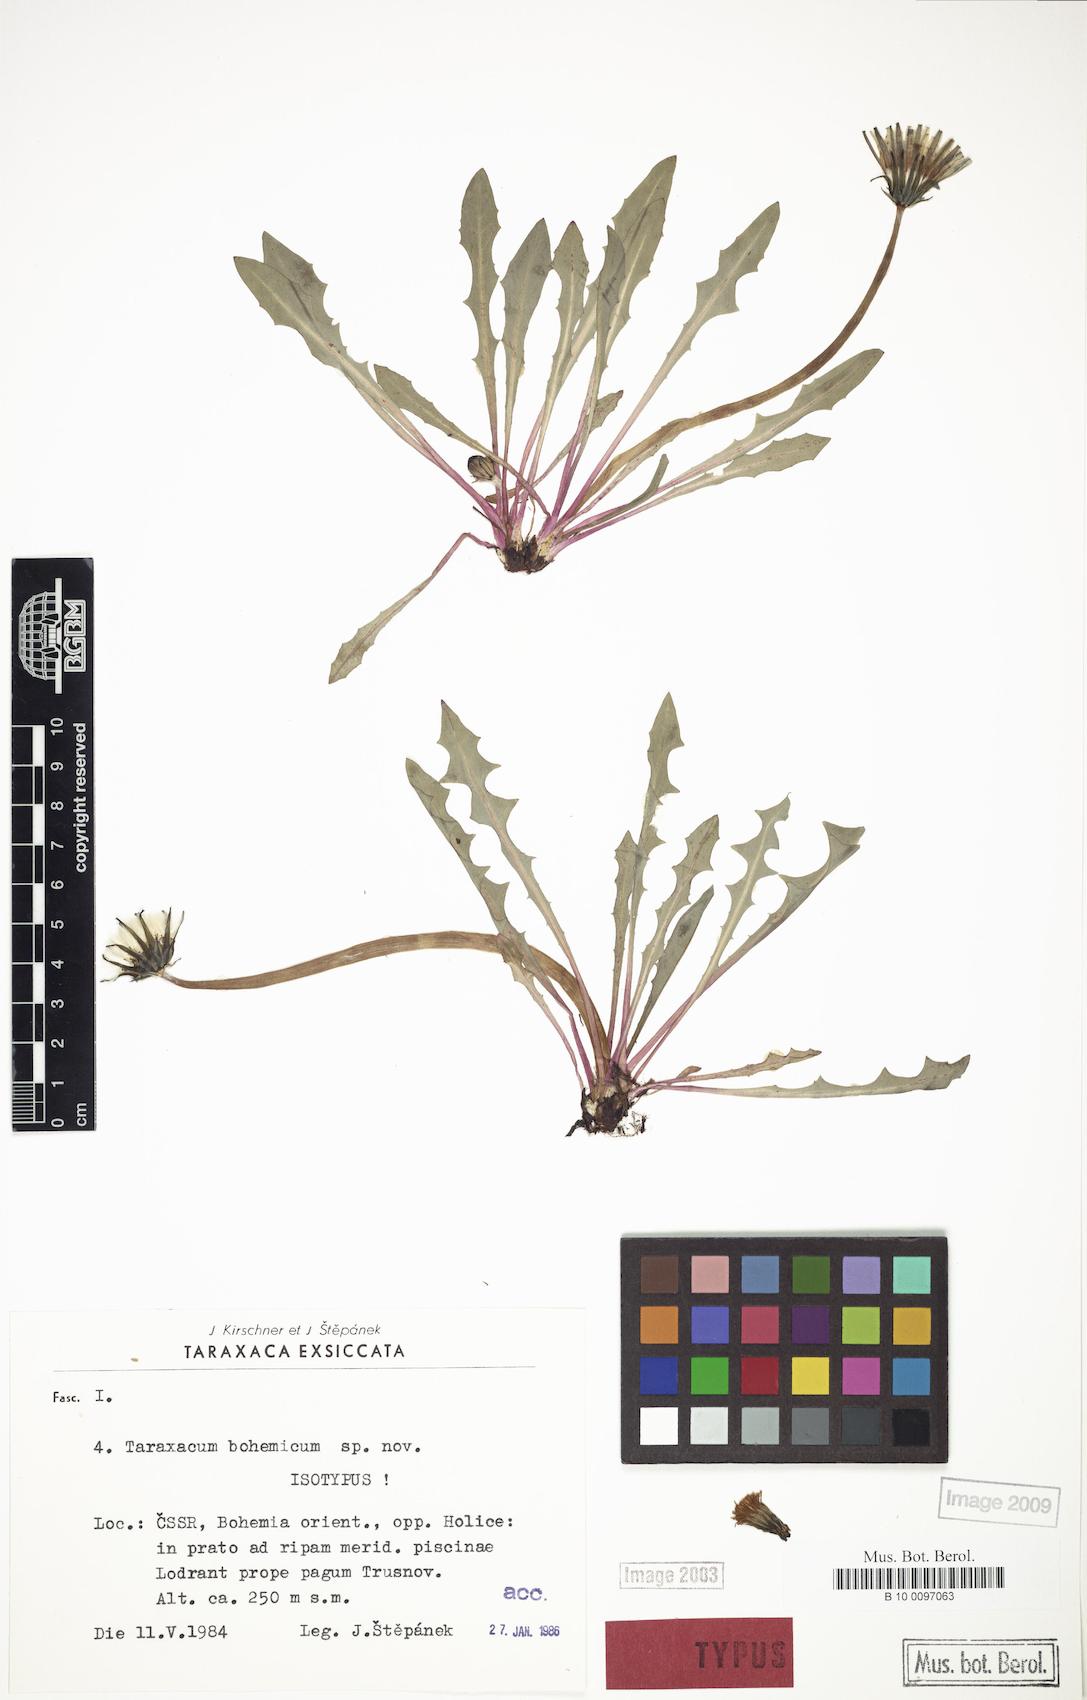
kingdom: Plantae
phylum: Tracheophyta
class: Magnoliopsida
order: Asterales
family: Asteraceae
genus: Taraxacum
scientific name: Taraxacum bohemicum
